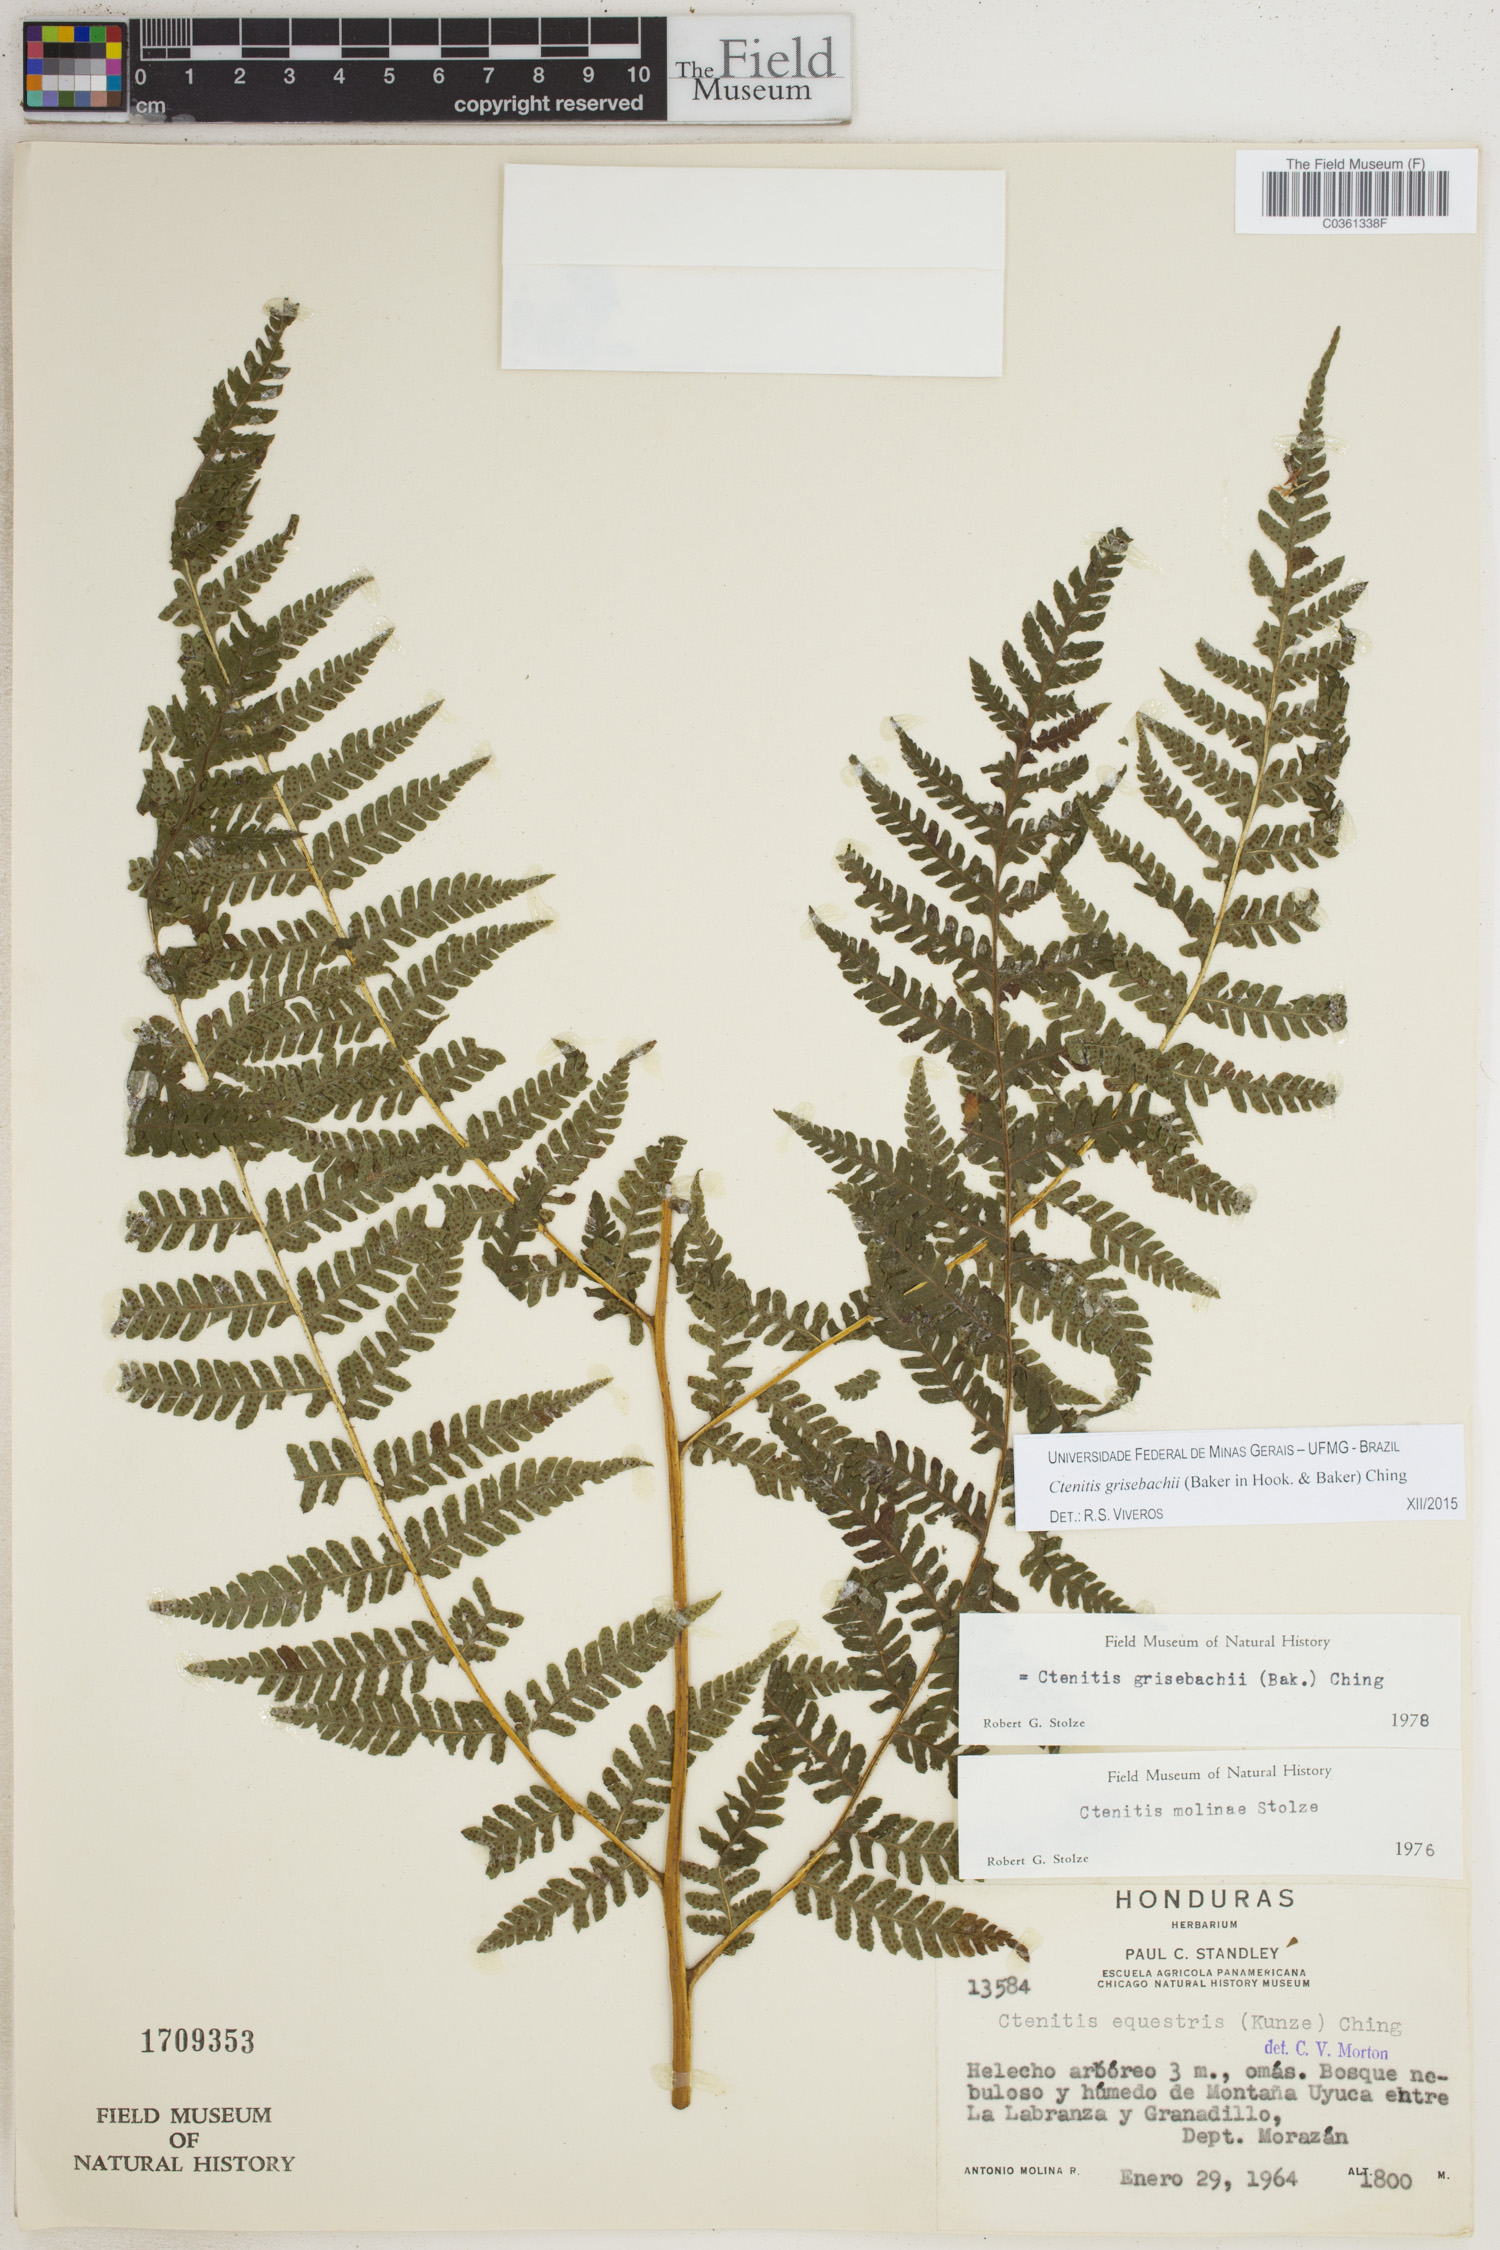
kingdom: Plantae
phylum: Tracheophyta
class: Polypodiopsida
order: Polypodiales
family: Dryopteridaceae
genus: Ctenitis
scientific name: Ctenitis grisebachii
